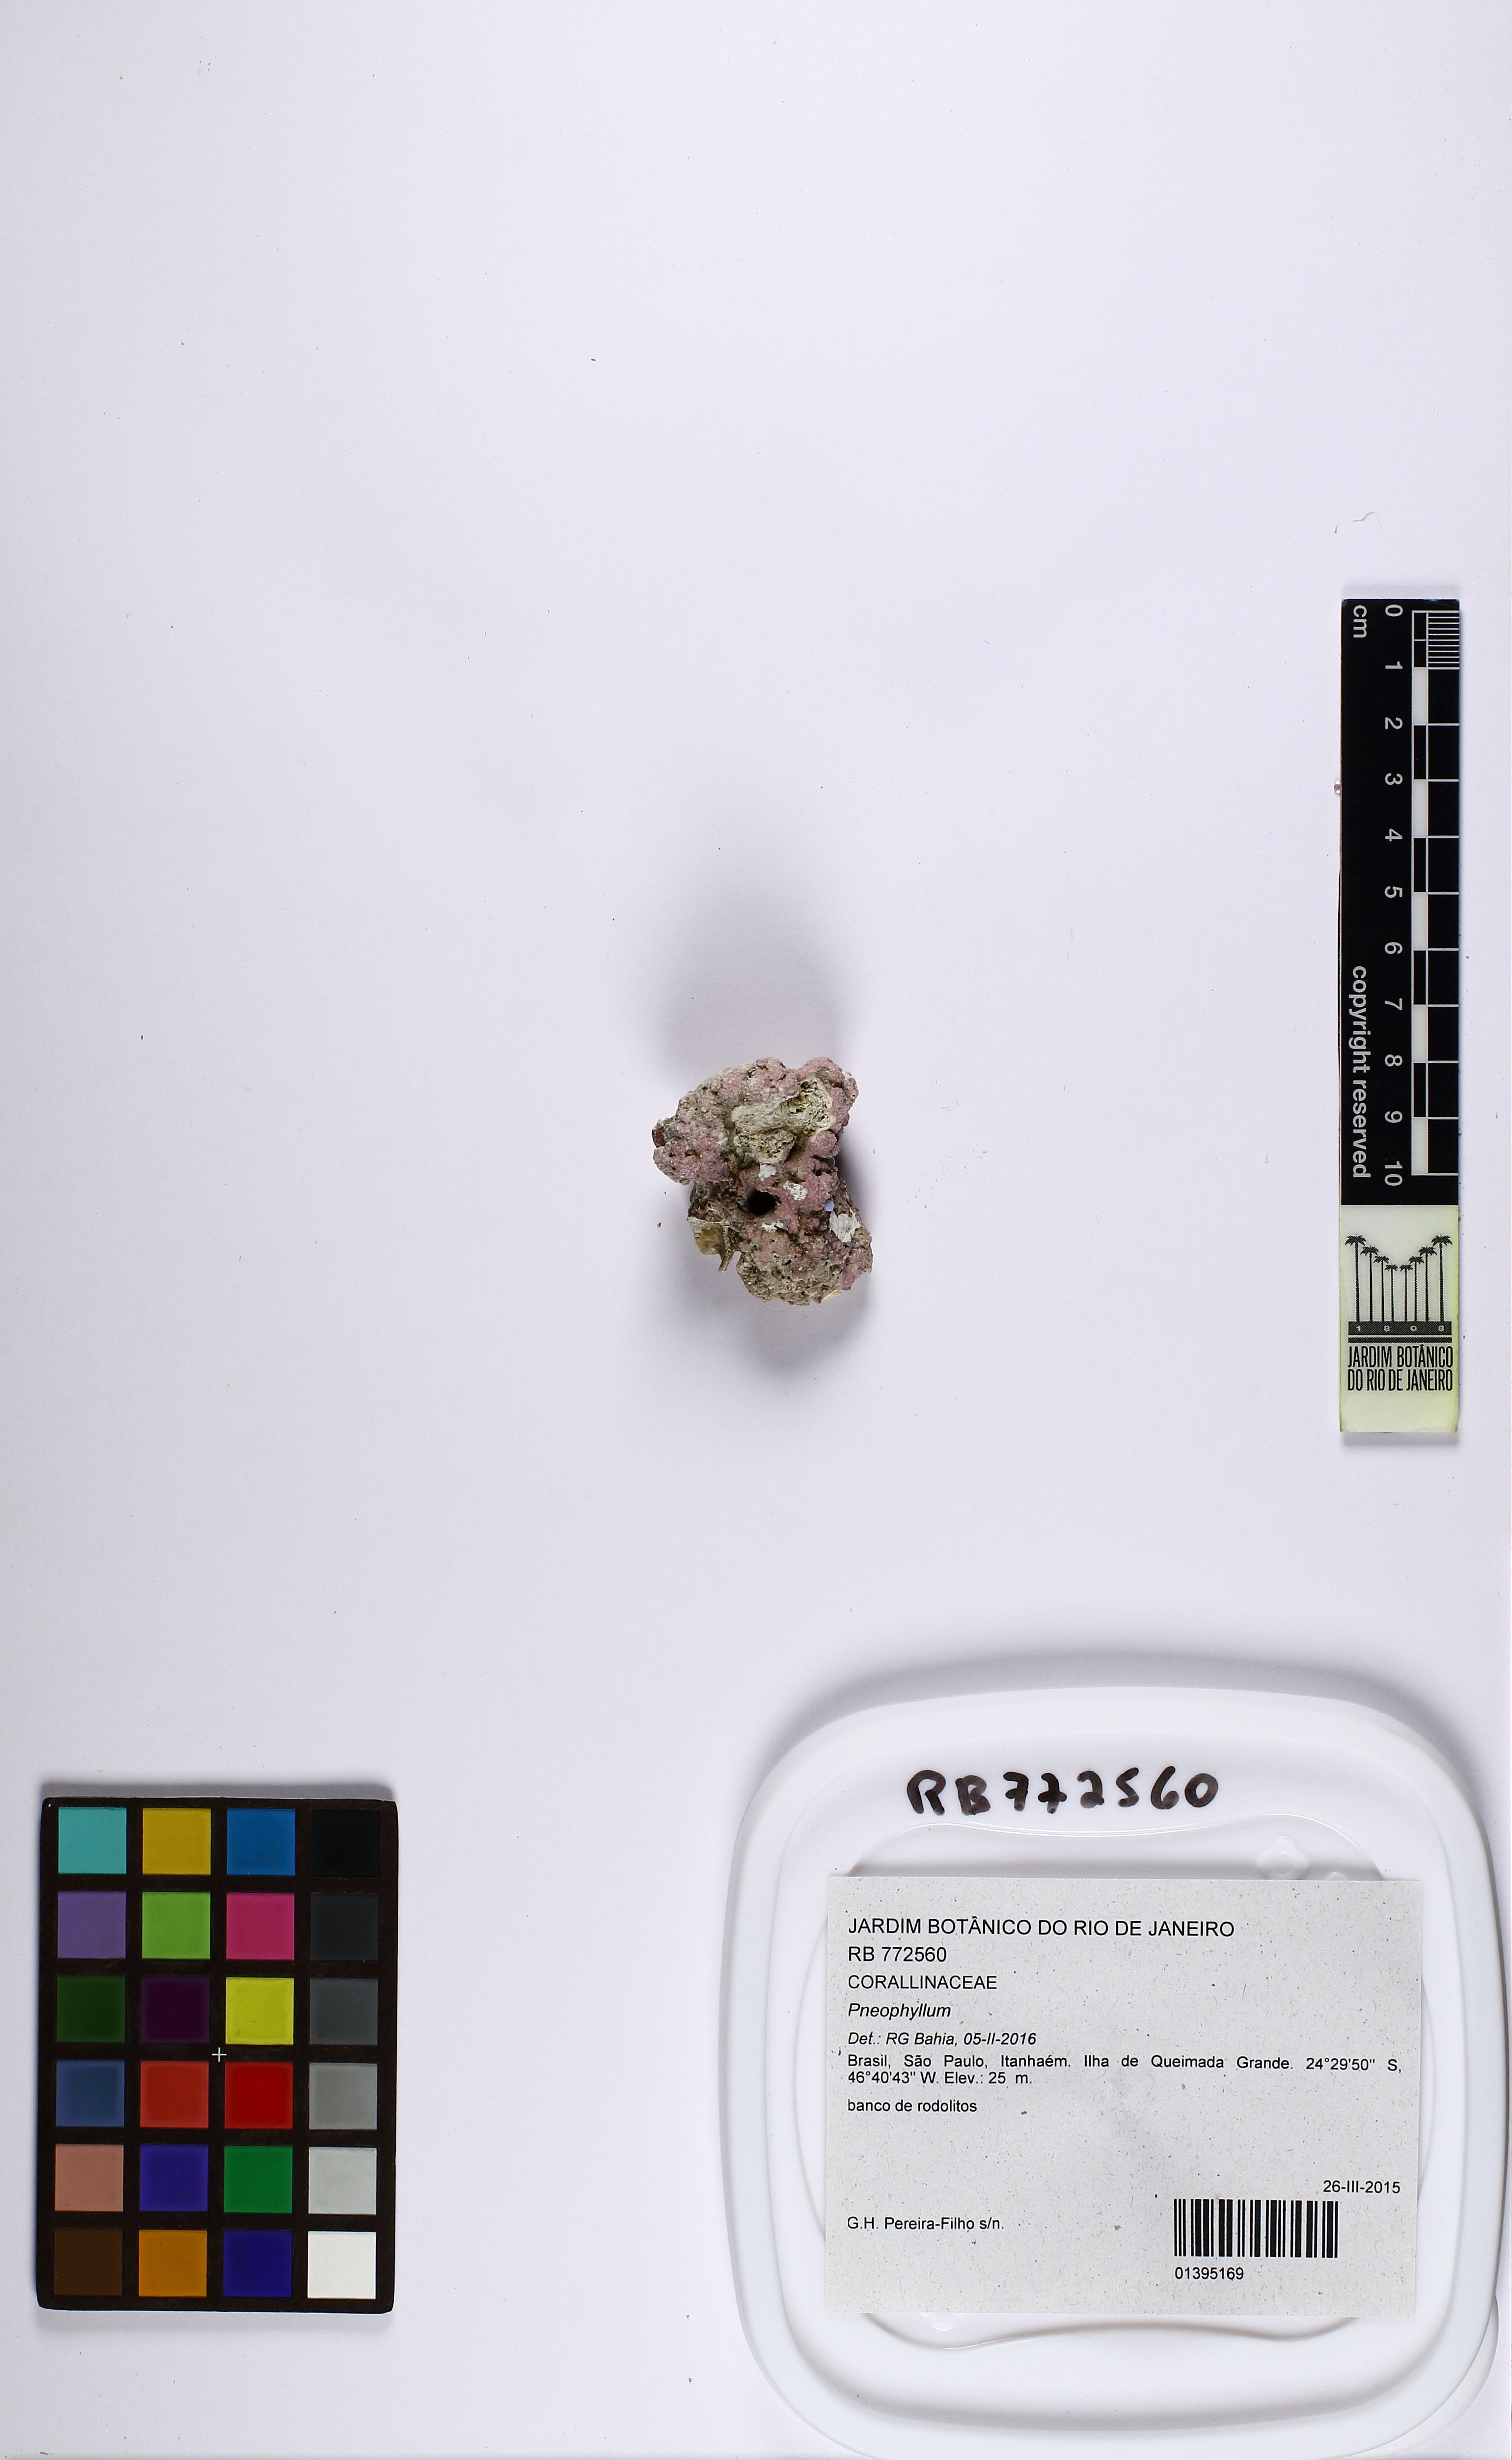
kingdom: Plantae
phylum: Rhodophyta
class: Florideophyceae
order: Corallinales
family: Corallinaceae
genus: Pneophyllum
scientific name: Pneophyllum
